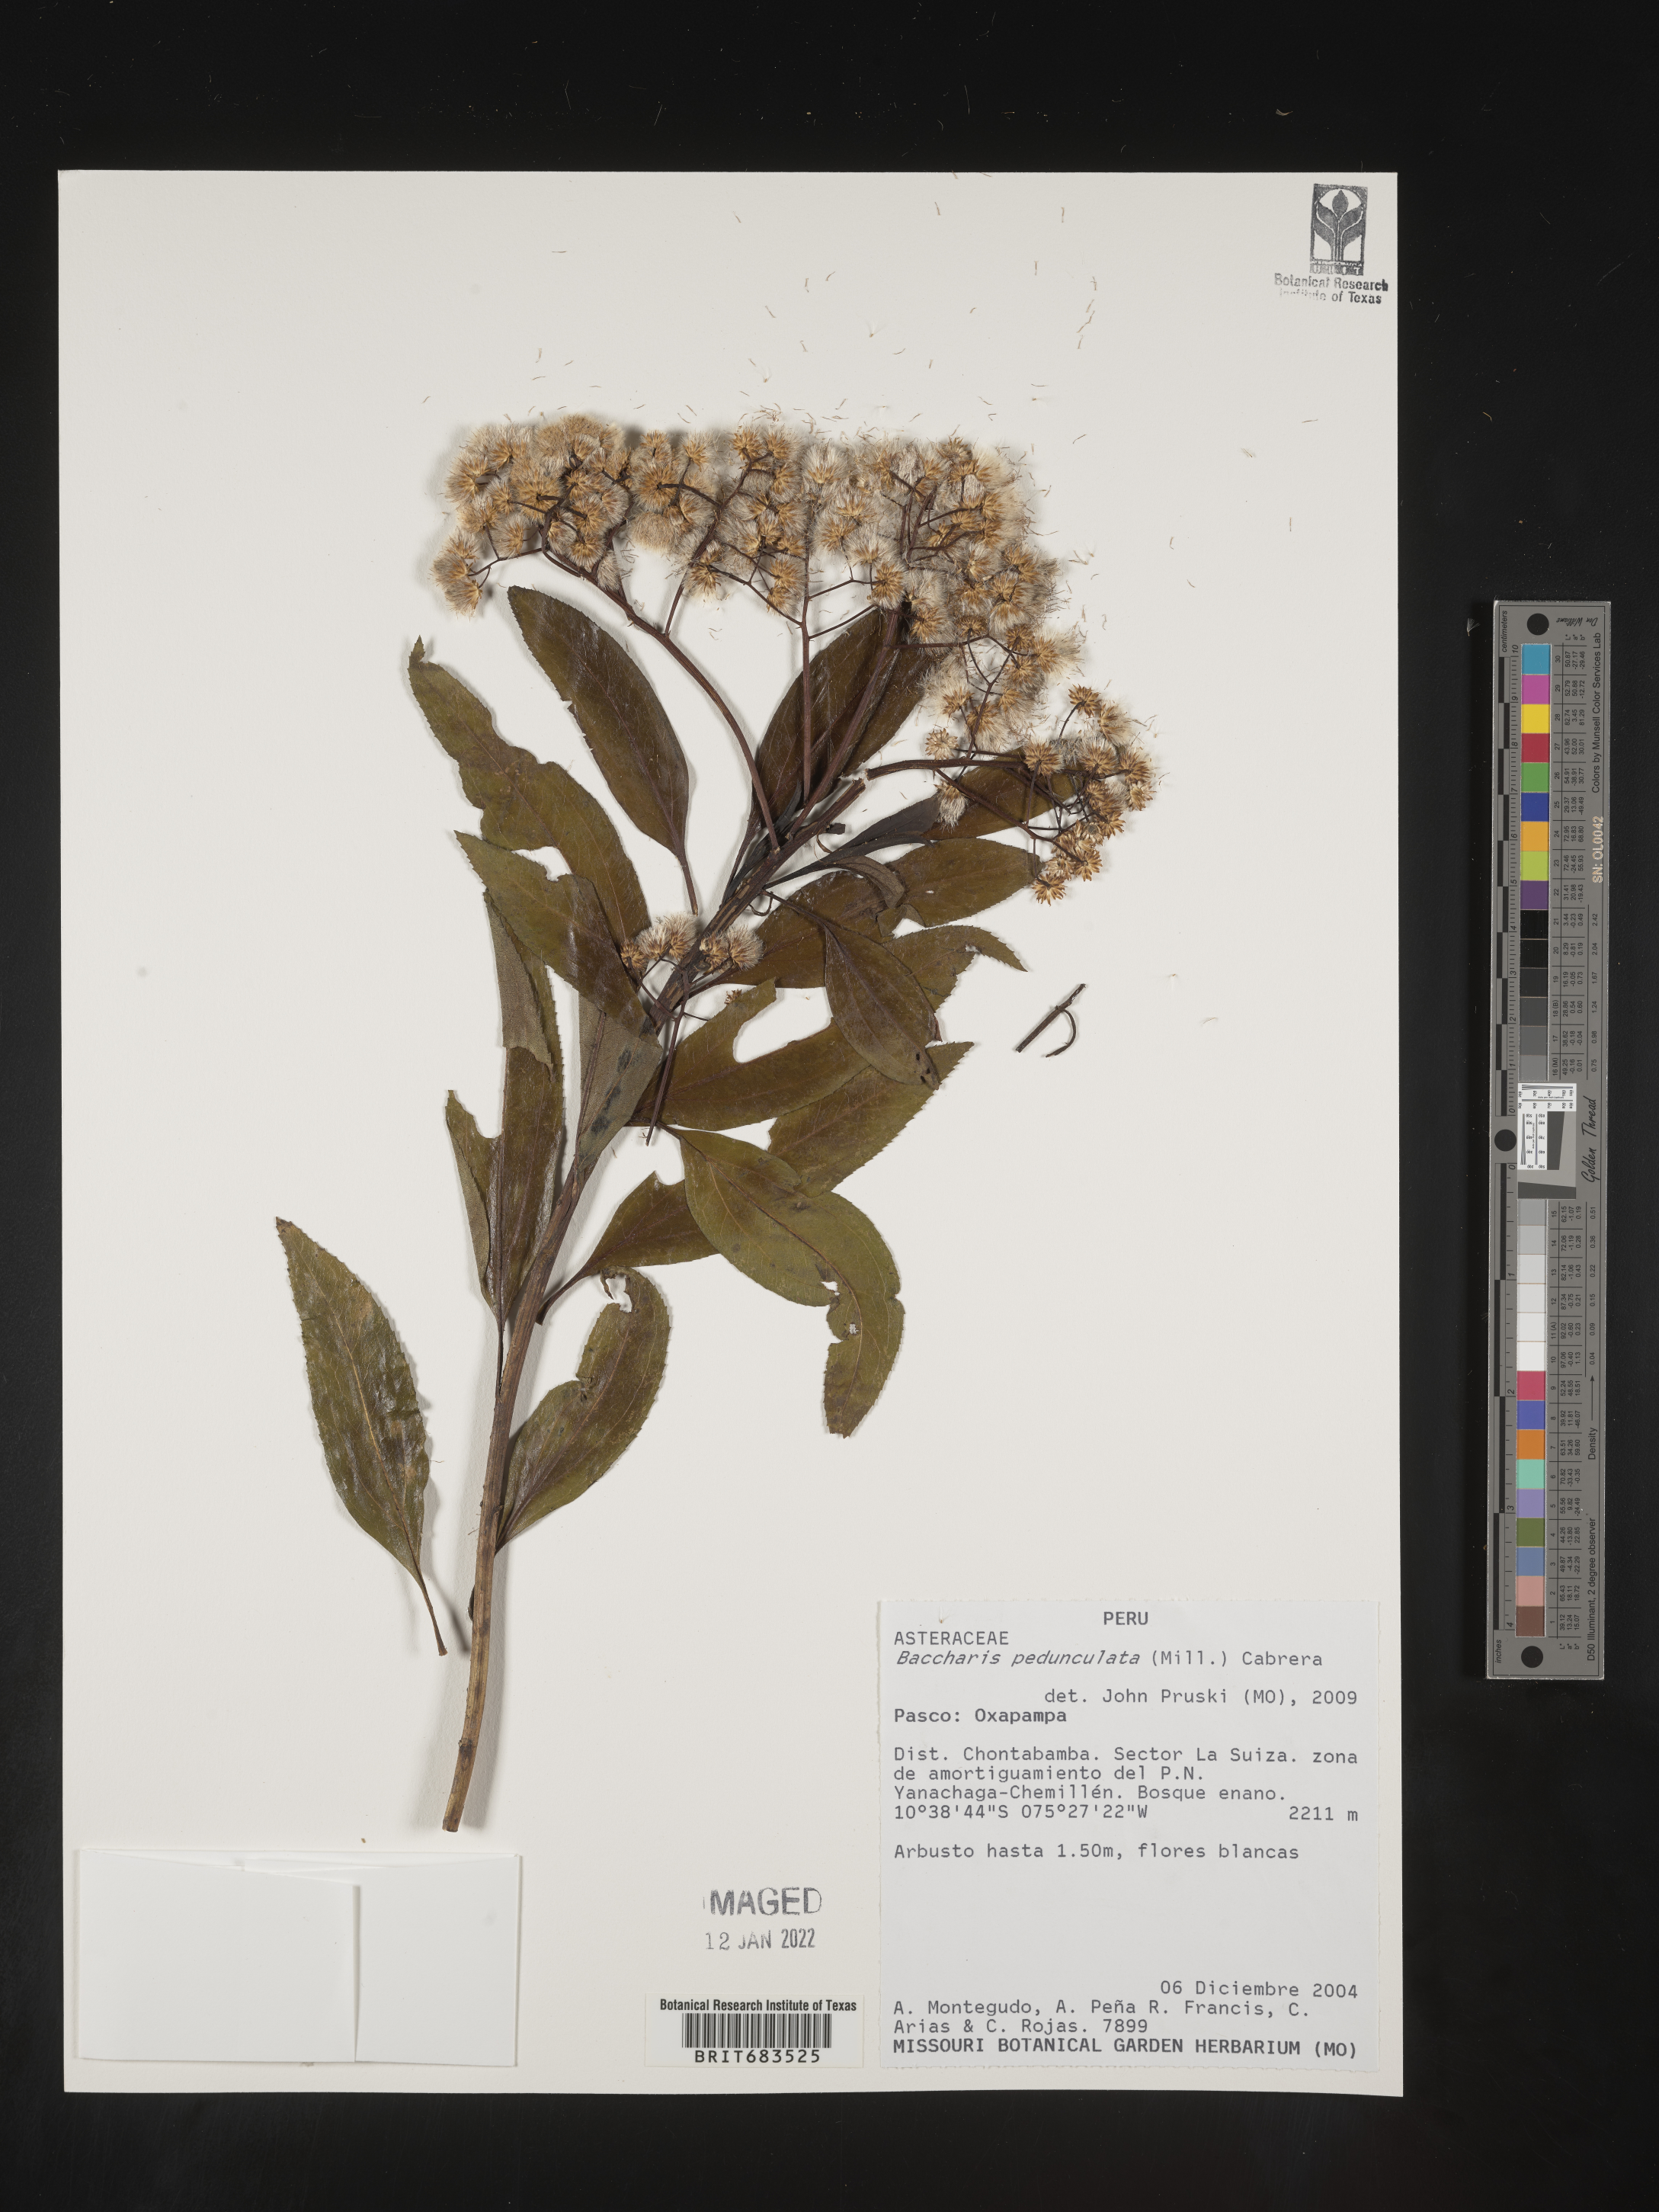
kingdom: Plantae
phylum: Tracheophyta
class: Magnoliopsida
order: Asterales
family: Asteraceae
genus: Baccharis
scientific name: Baccharis
